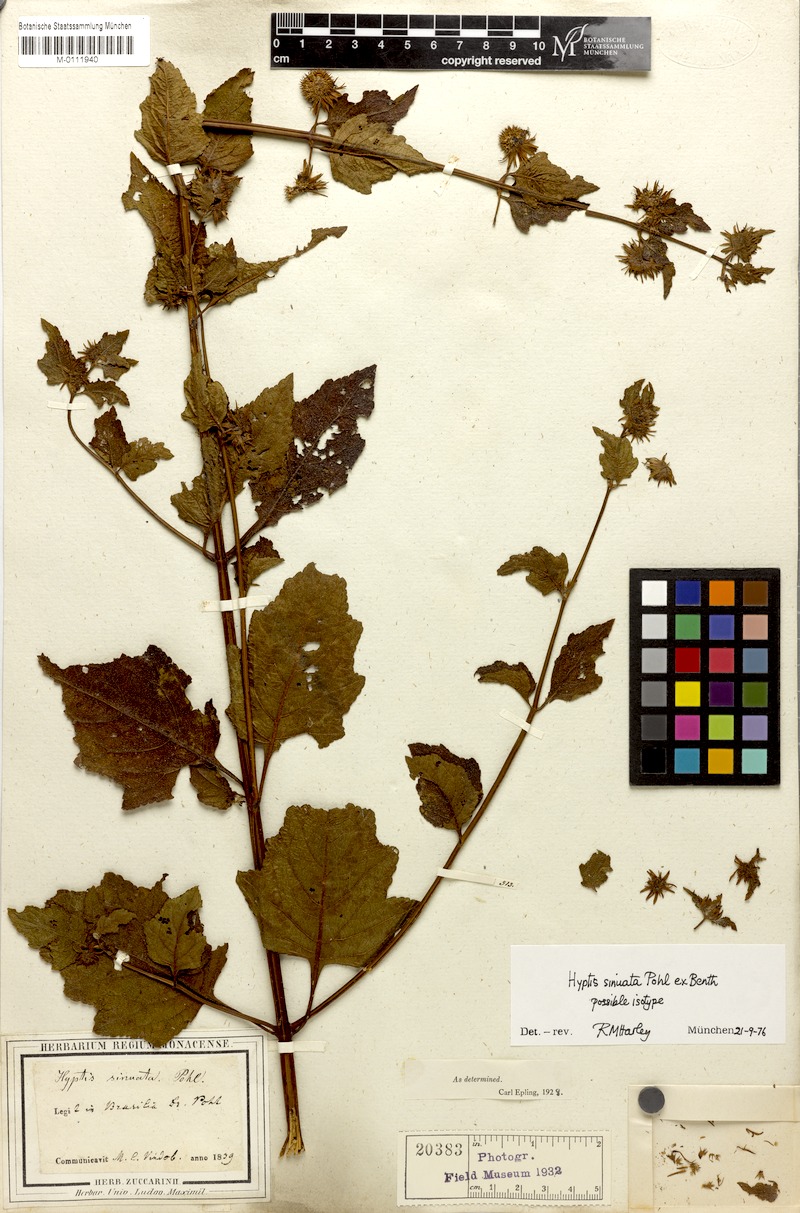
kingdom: Plantae
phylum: Tracheophyta
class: Magnoliopsida
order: Lamiales
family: Lamiaceae
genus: Hyptis
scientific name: Hyptis sinuata
